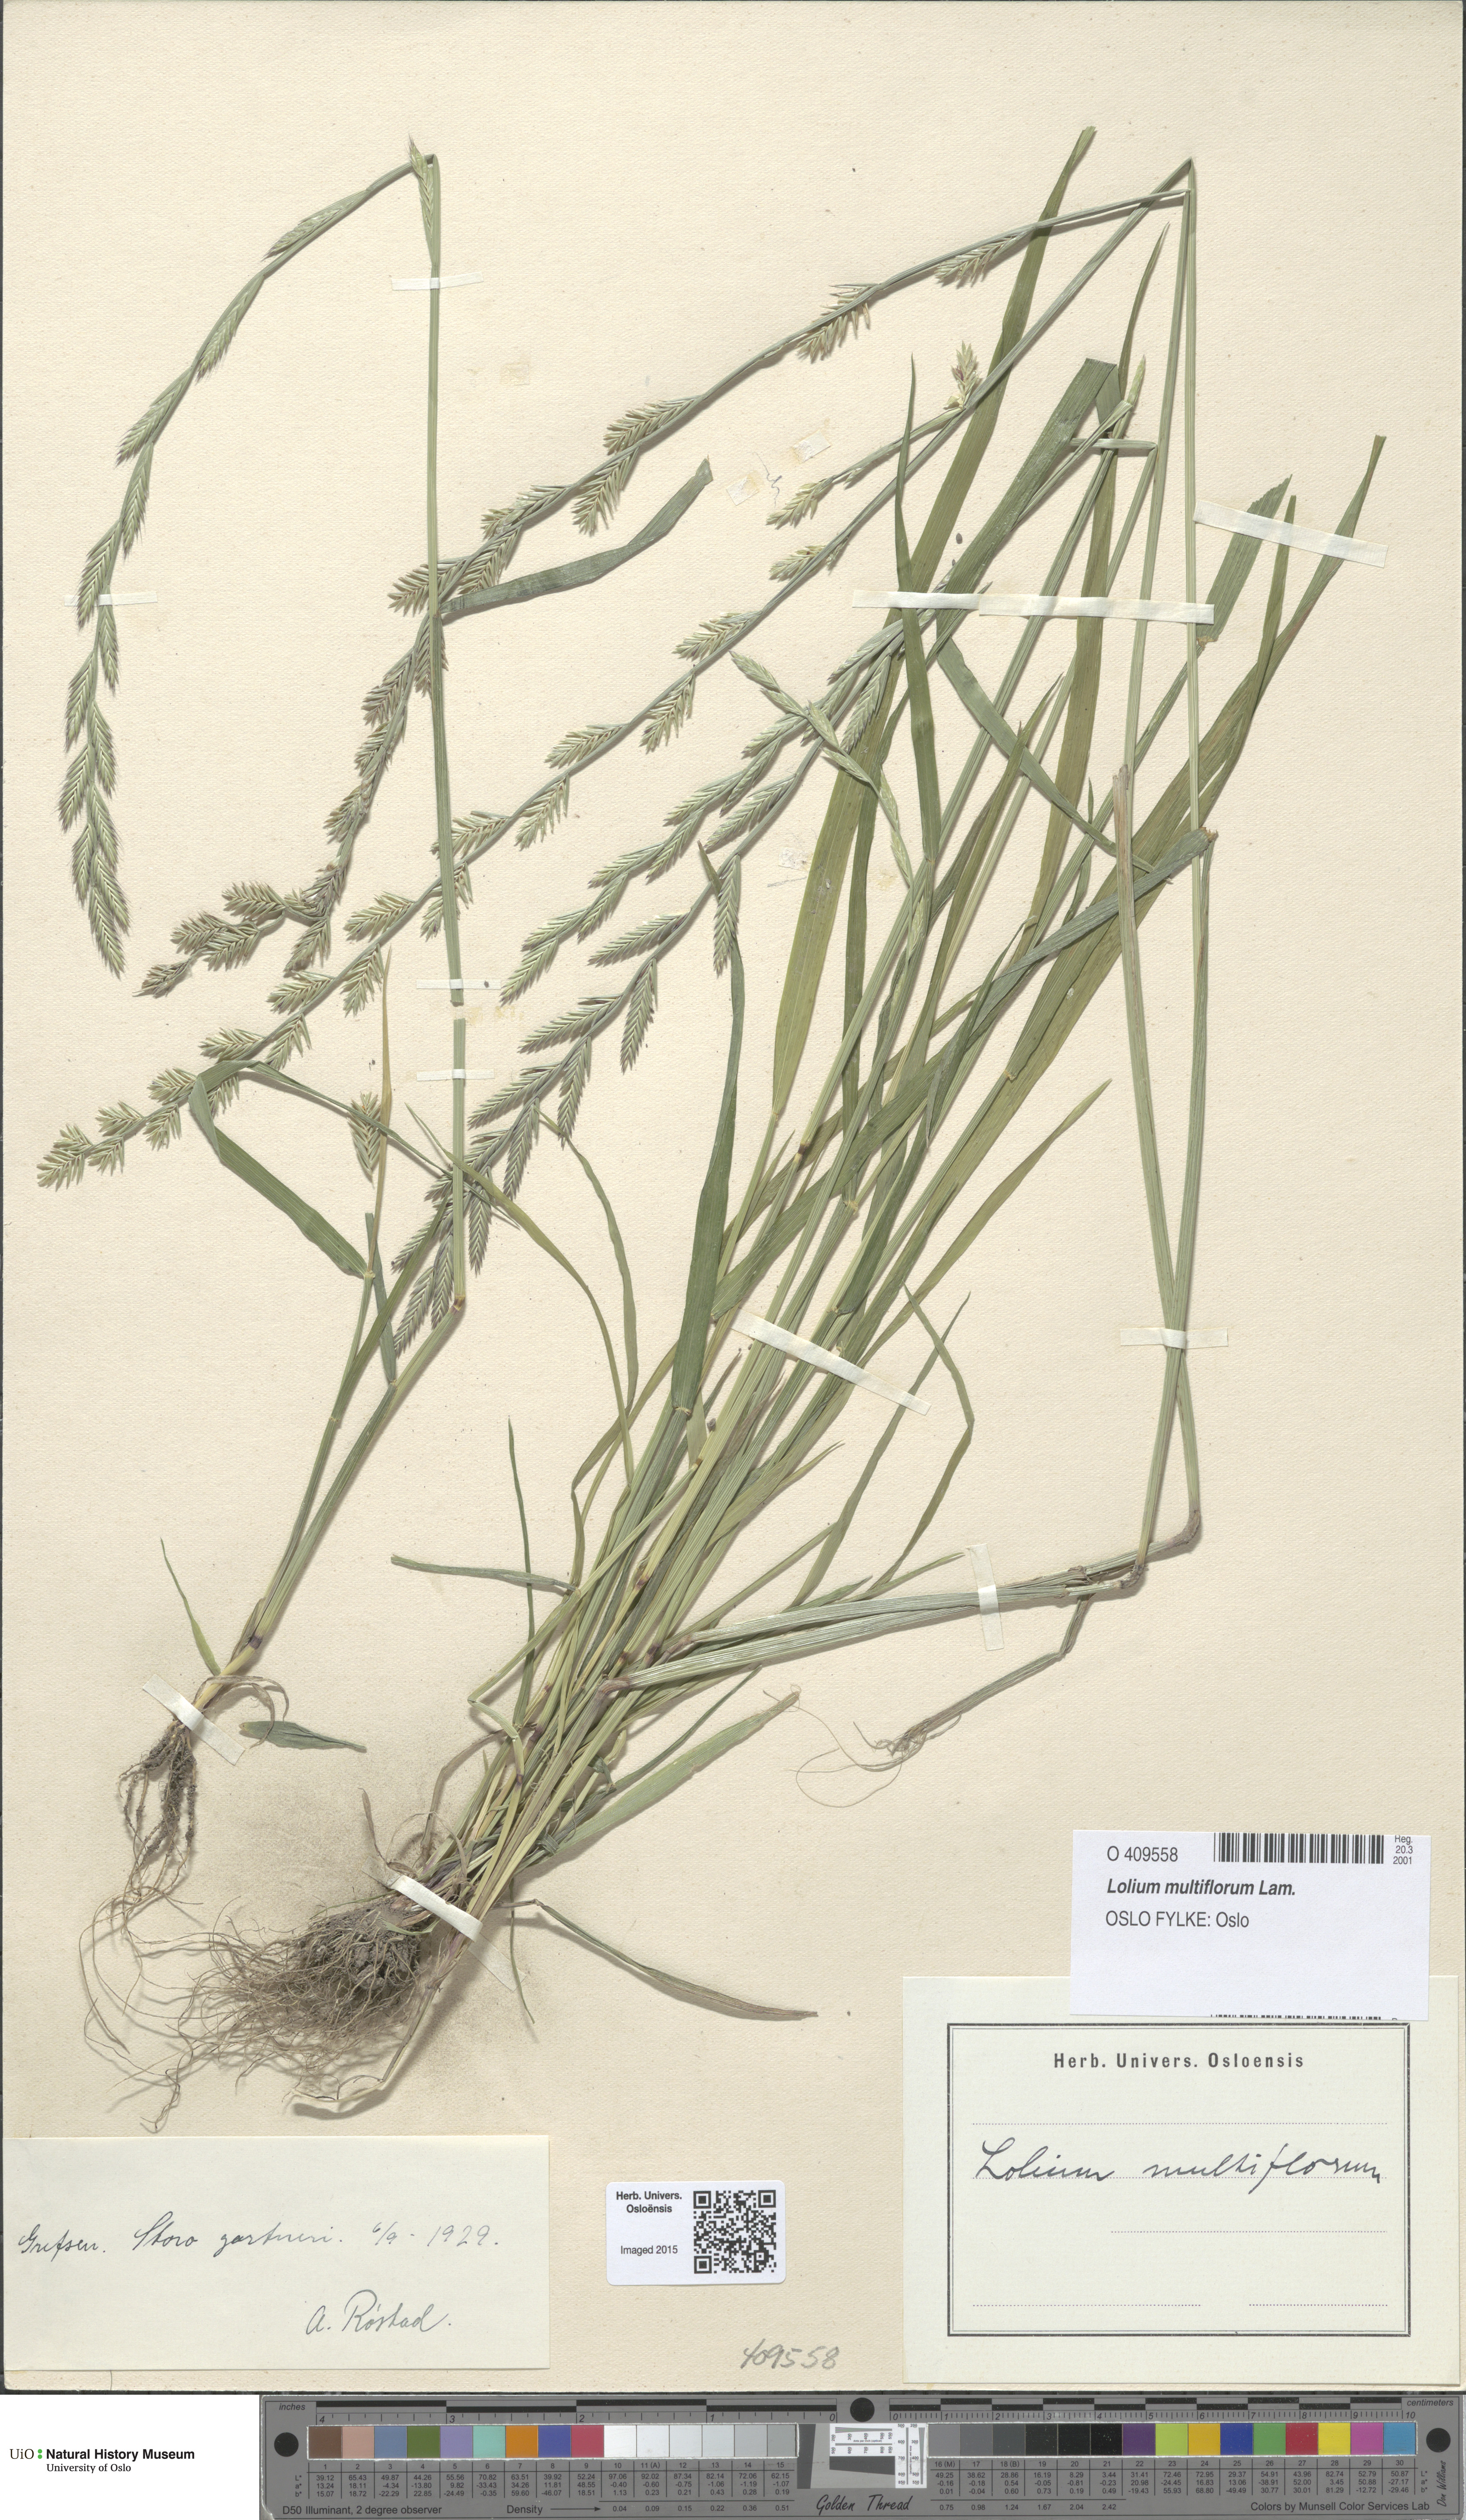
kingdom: Plantae
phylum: Tracheophyta
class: Liliopsida
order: Poales
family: Poaceae
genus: Lolium
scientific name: Lolium multiflorum
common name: Annual ryegrass
